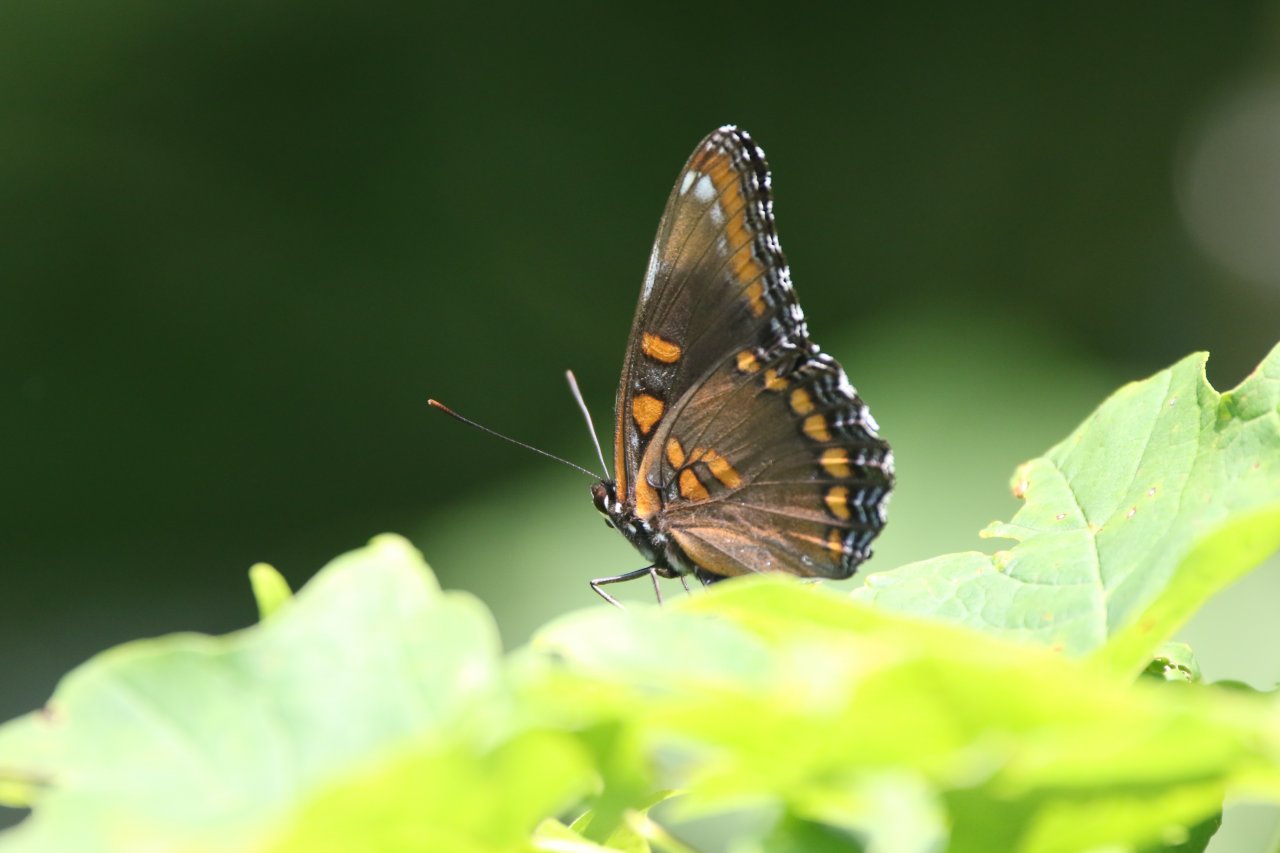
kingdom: Animalia
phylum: Arthropoda
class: Insecta
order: Lepidoptera
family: Nymphalidae
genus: Limenitis
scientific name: Limenitis astyanax
